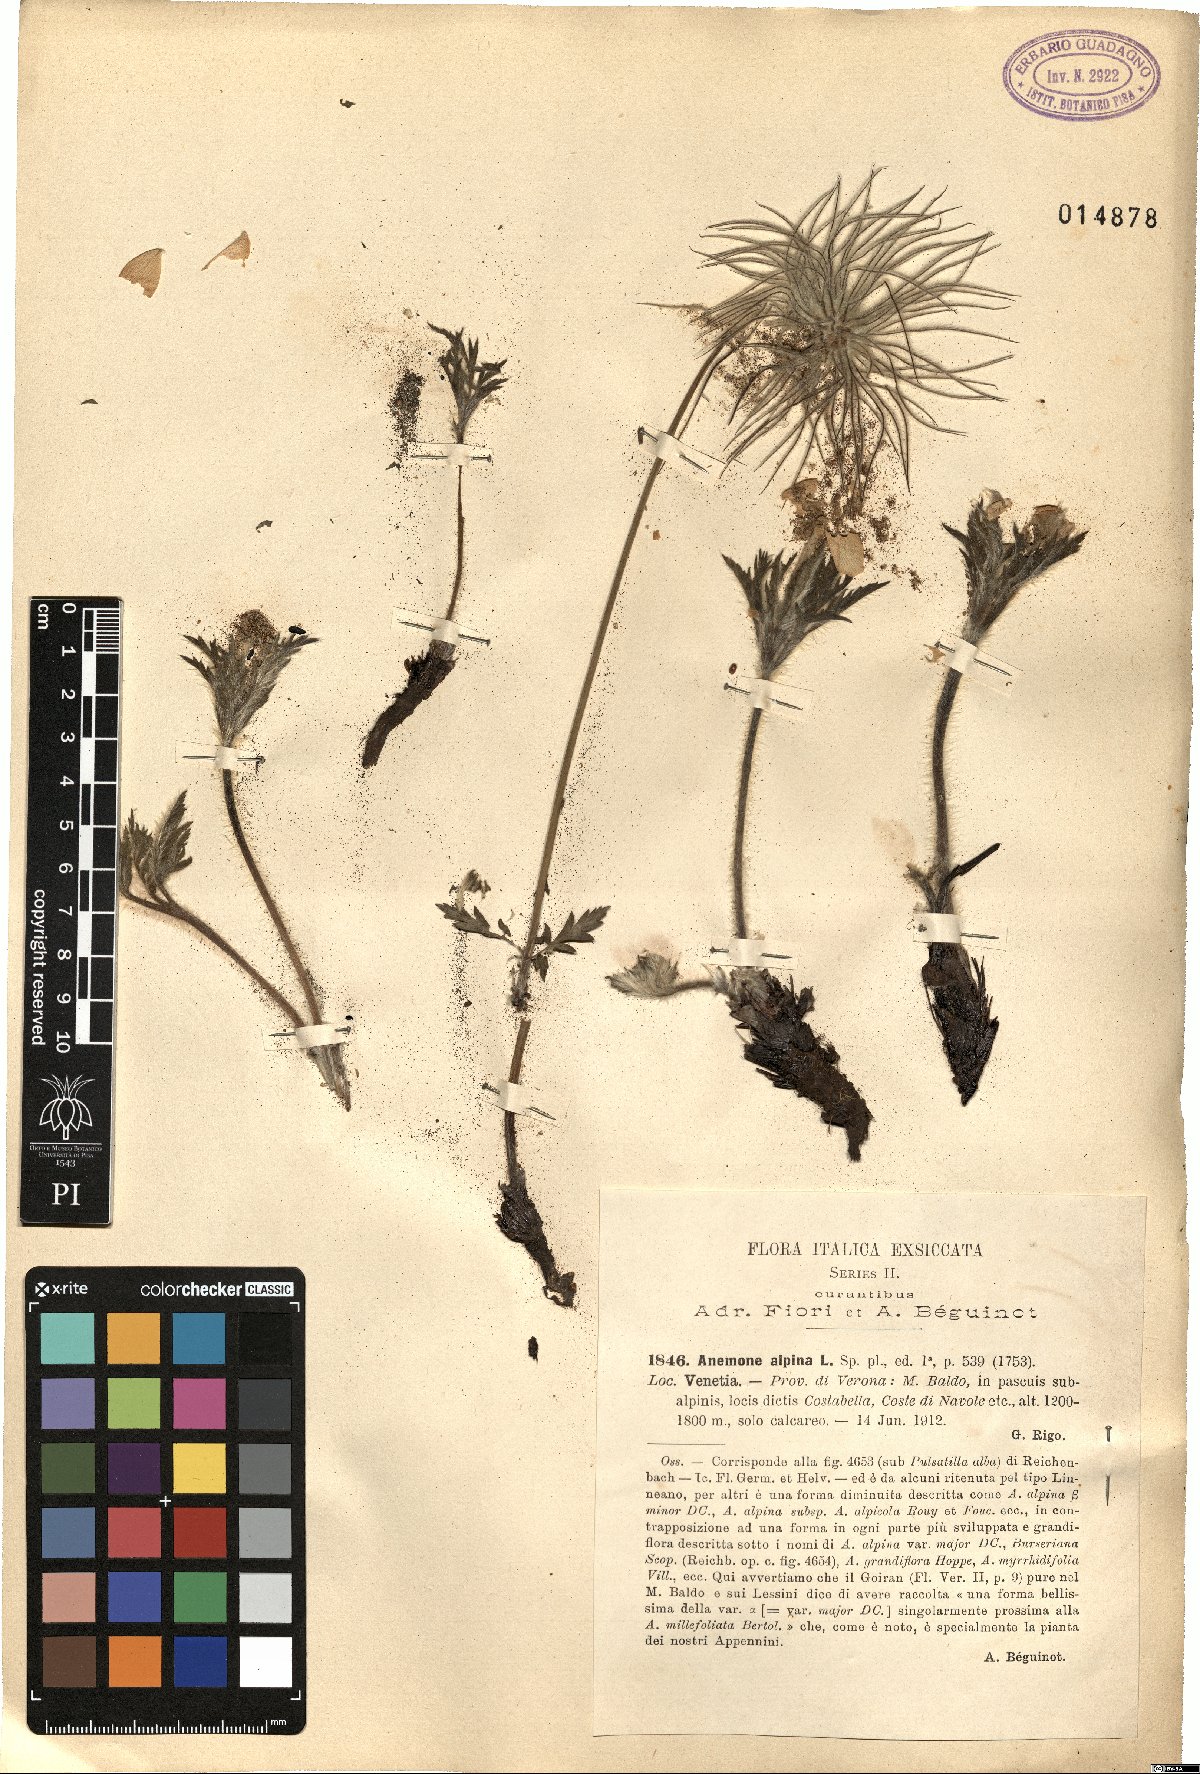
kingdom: Plantae
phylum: Tracheophyta
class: Magnoliopsida
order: Ranunculales
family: Ranunculaceae
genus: Pulsatilla
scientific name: Pulsatilla alpina
